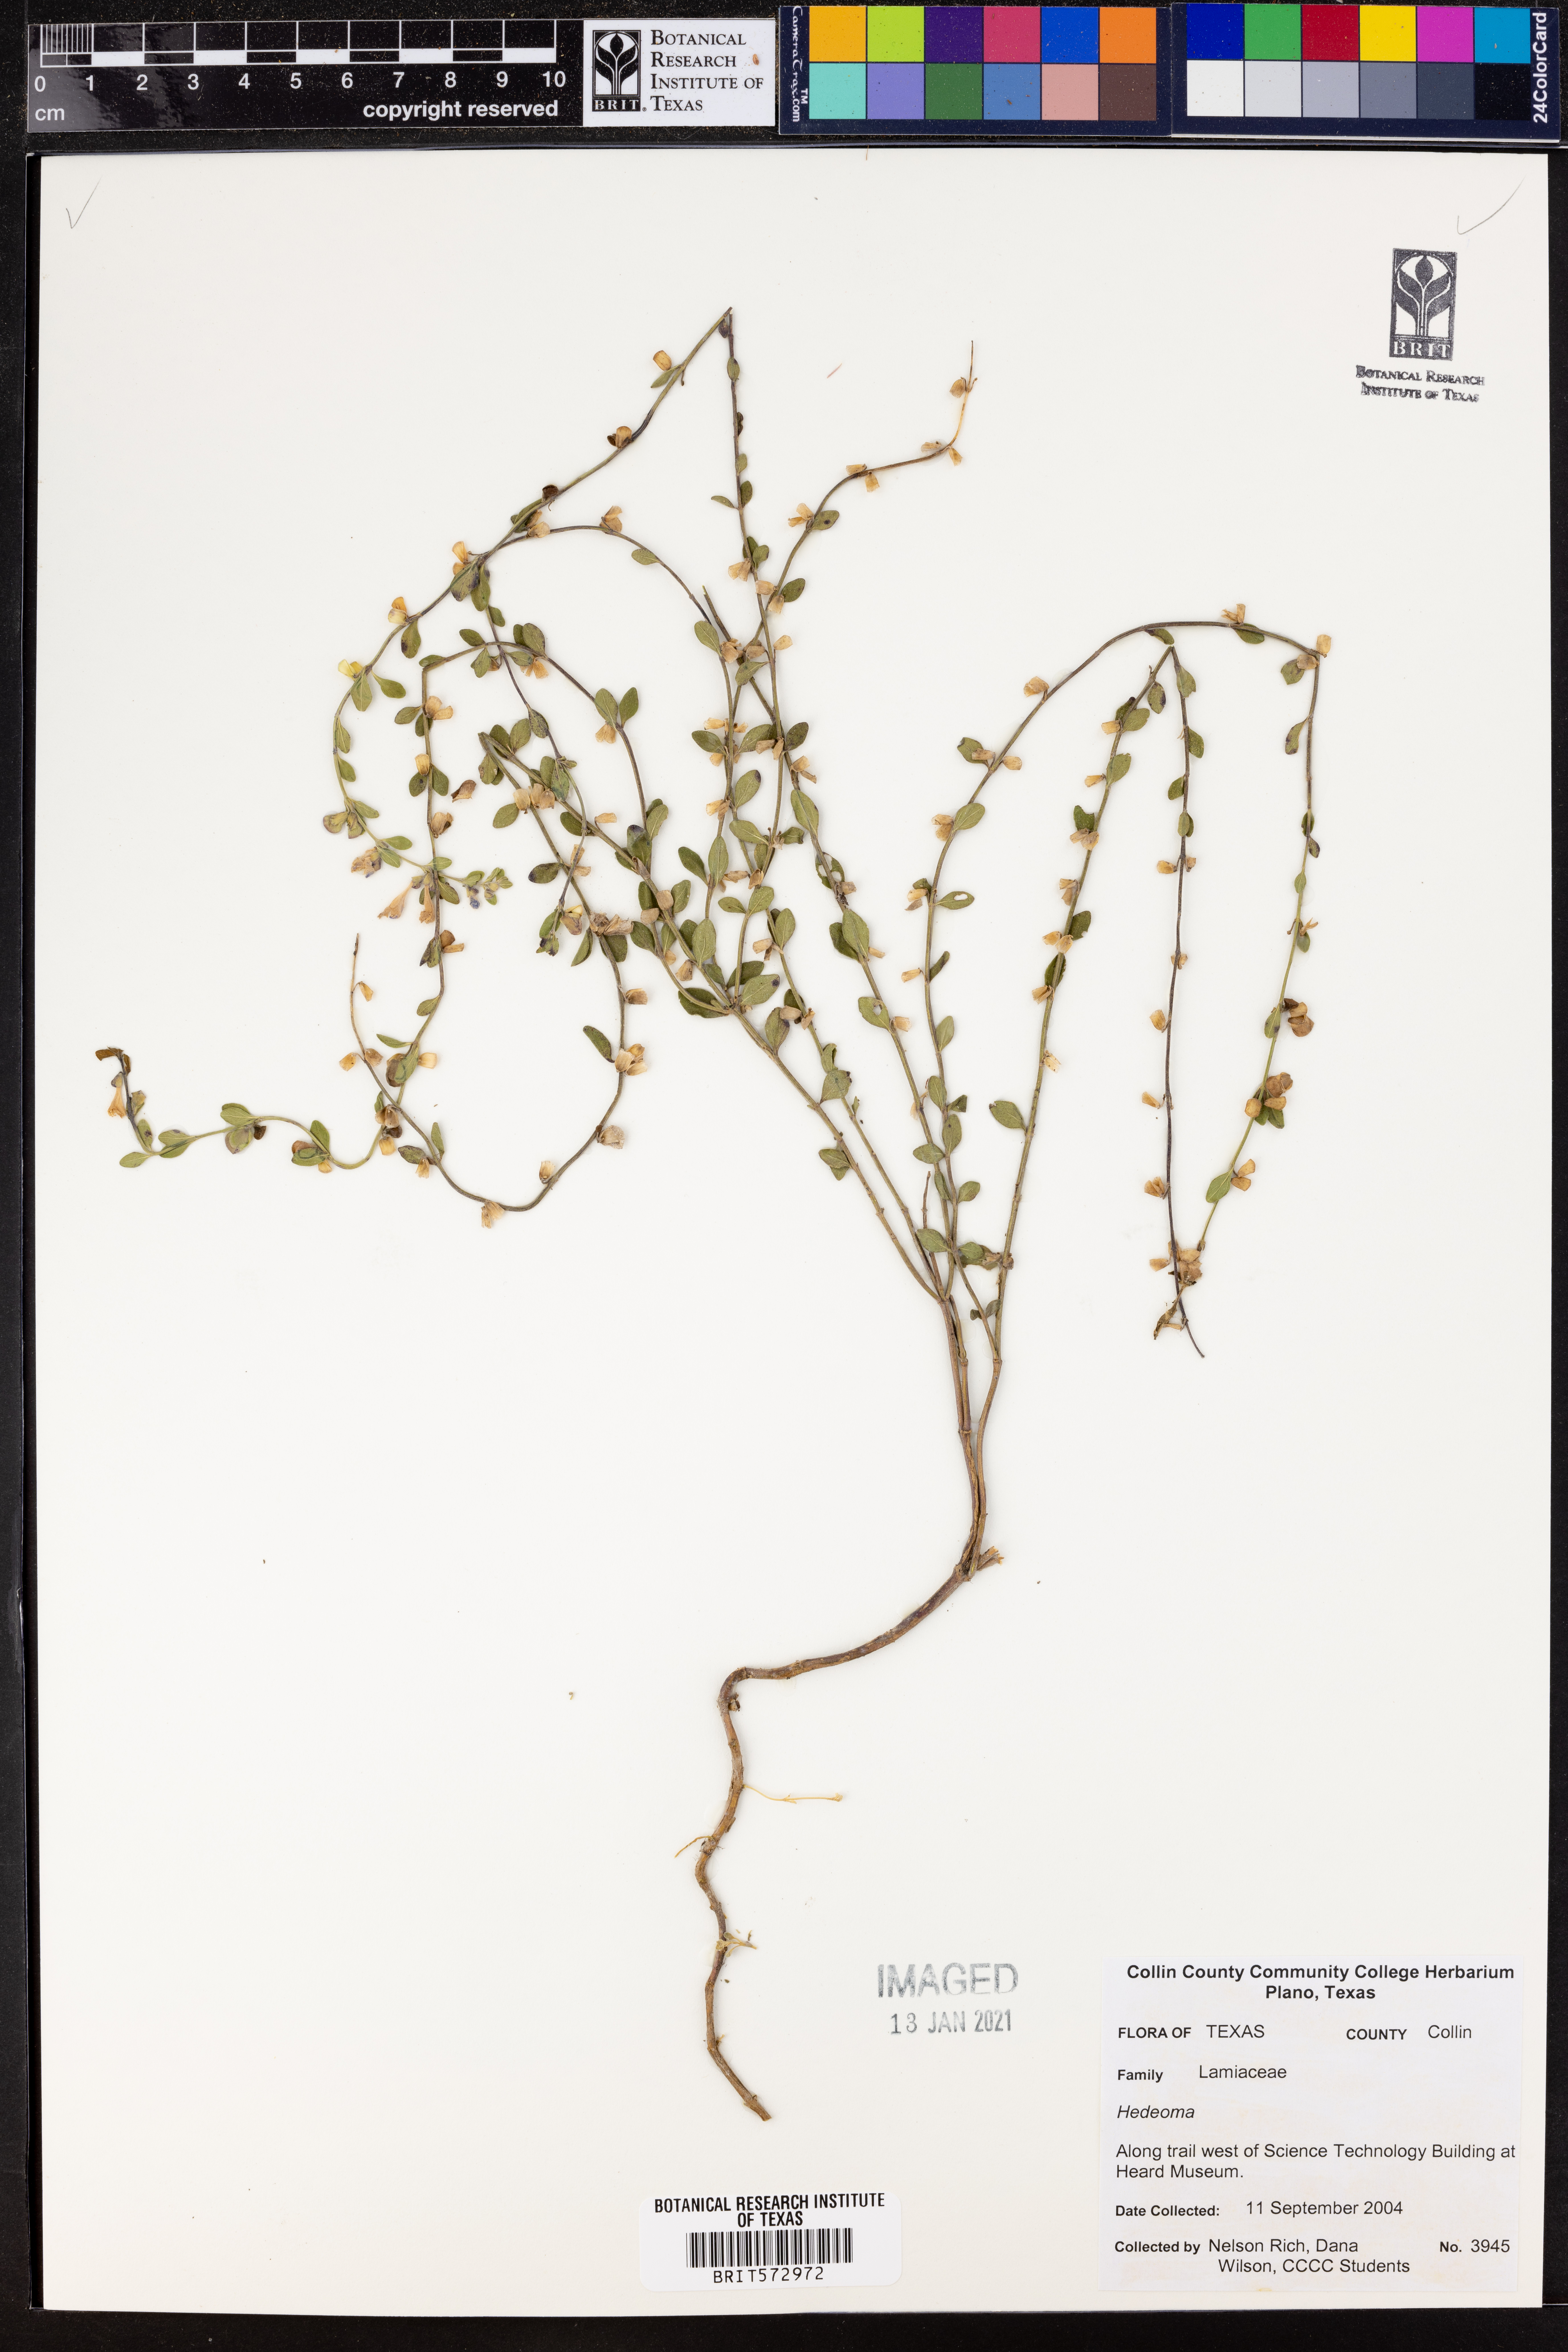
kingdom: Plantae
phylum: Tracheophyta
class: Magnoliopsida
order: Lamiales
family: Lamiaceae
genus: Hedeoma
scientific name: Hedeoma
